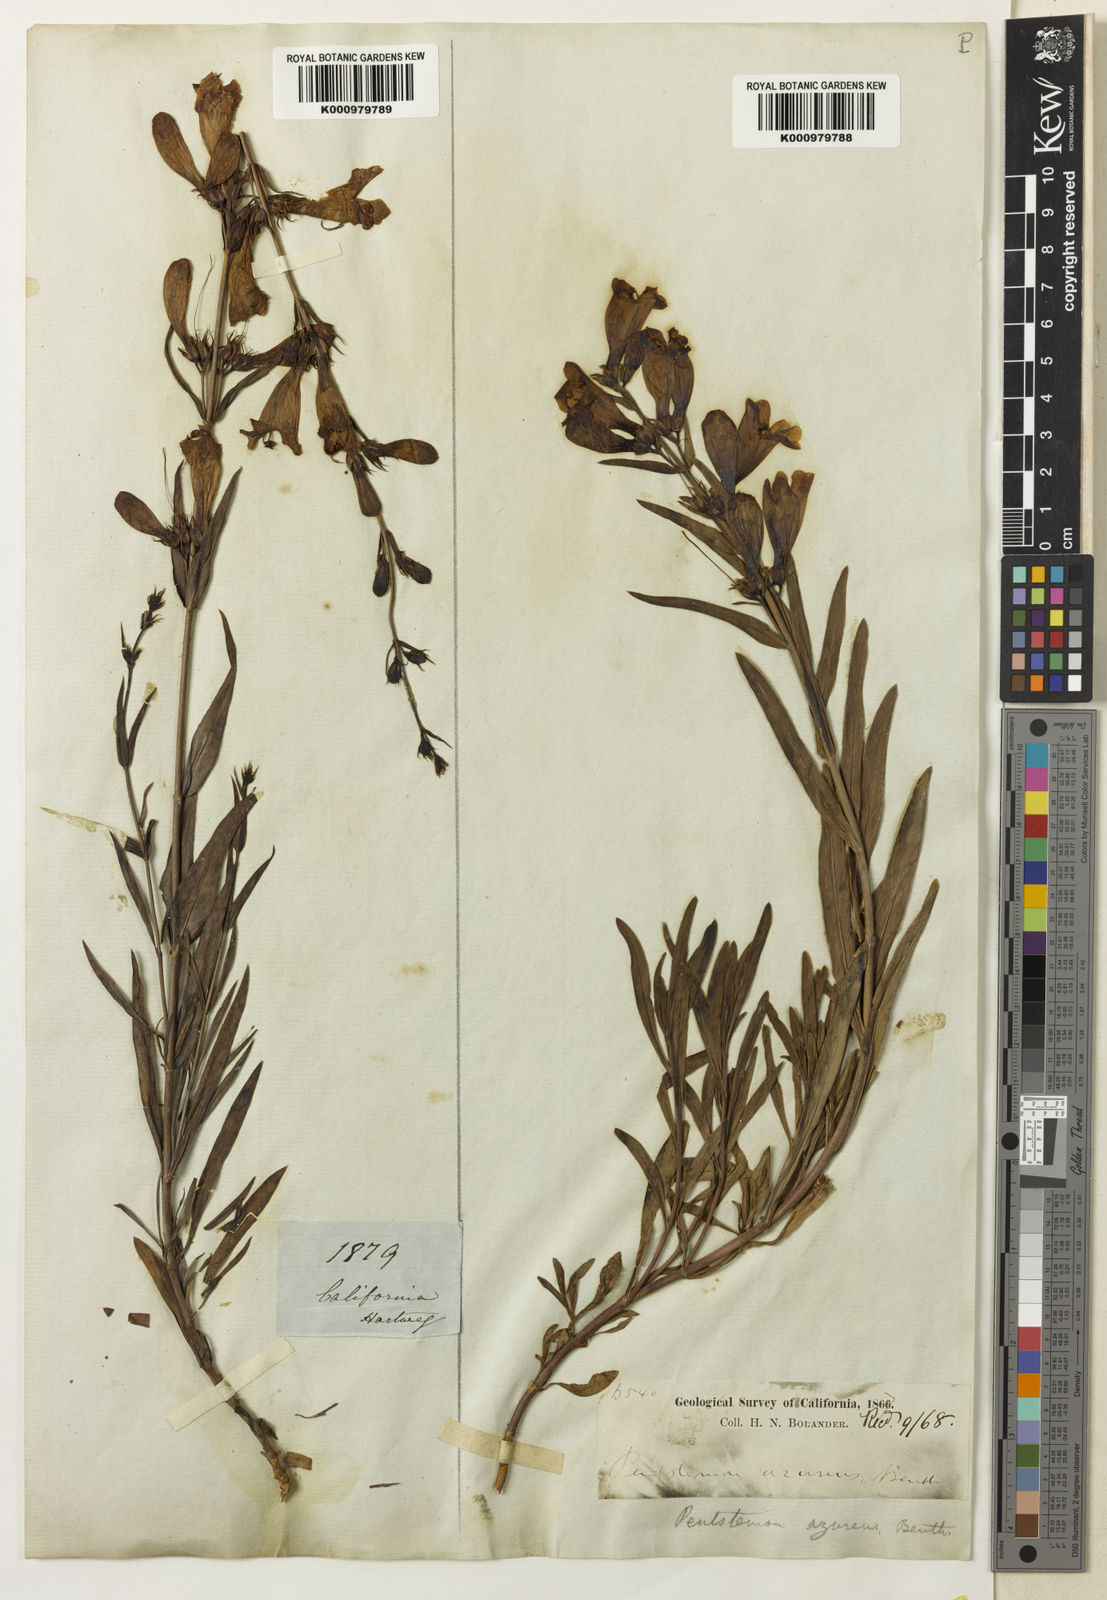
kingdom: Plantae
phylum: Tracheophyta
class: Magnoliopsida
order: Lamiales
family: Plantaginaceae
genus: Penstemon
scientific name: Penstemon
